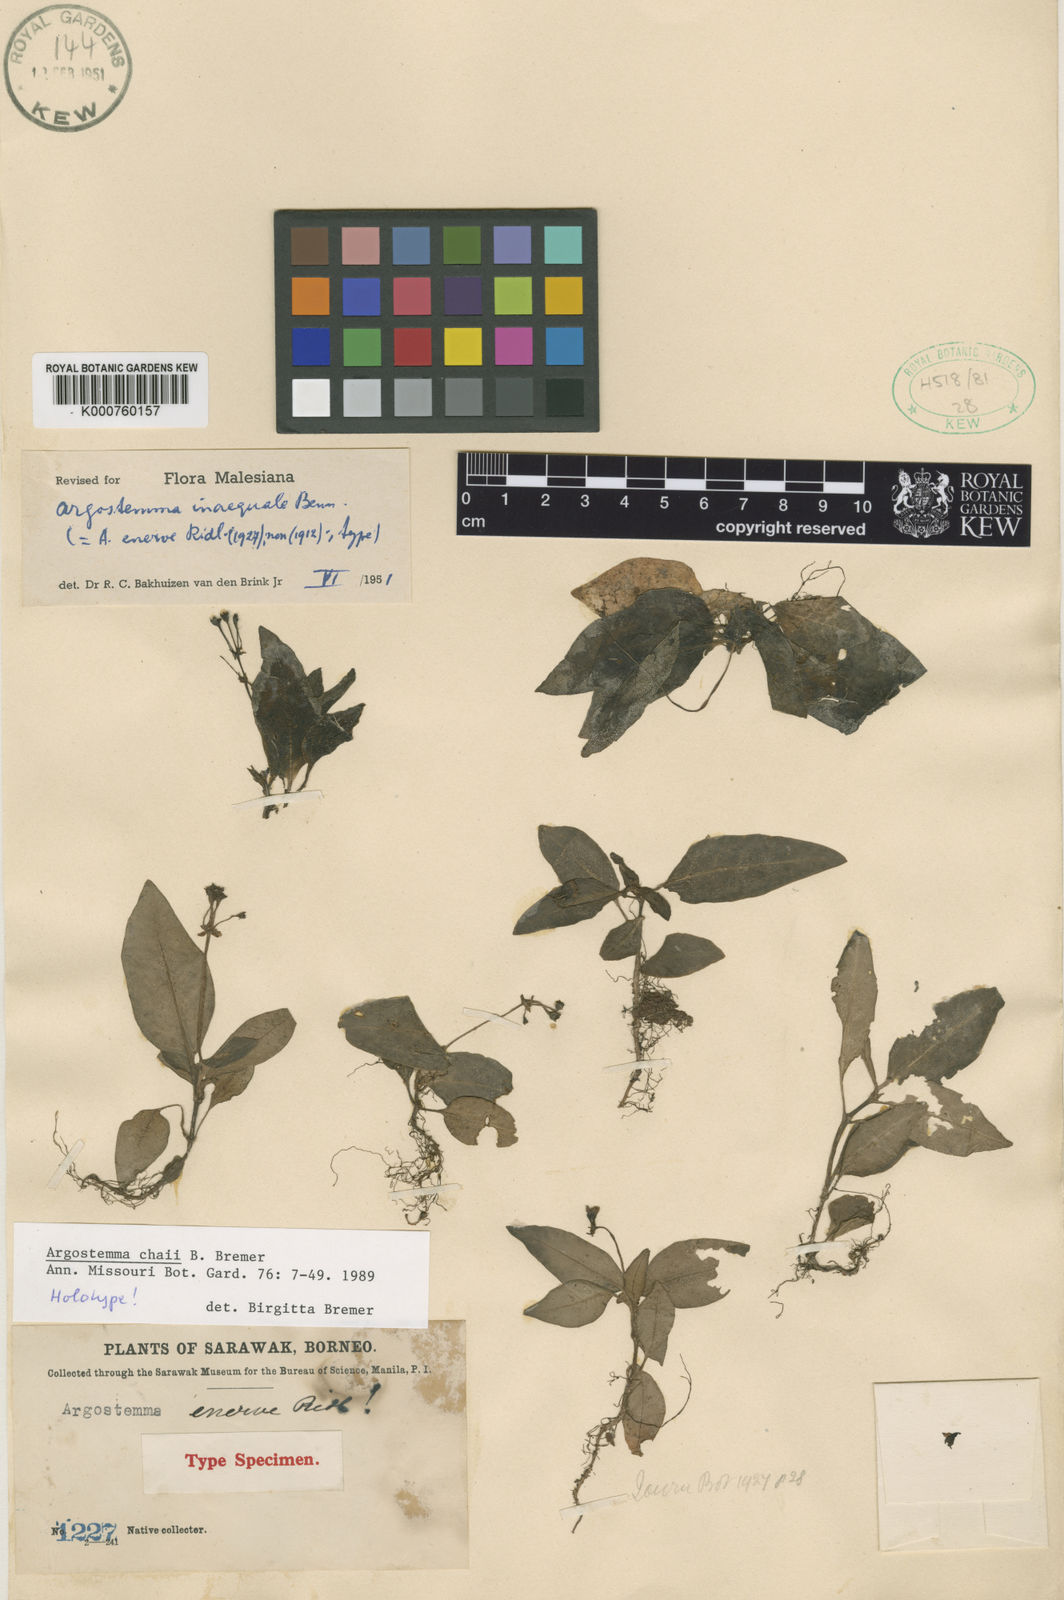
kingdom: Plantae
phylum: Tracheophyta
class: Magnoliopsida
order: Gentianales
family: Rubiaceae
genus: Argostemma
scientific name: Argostemma chaii
